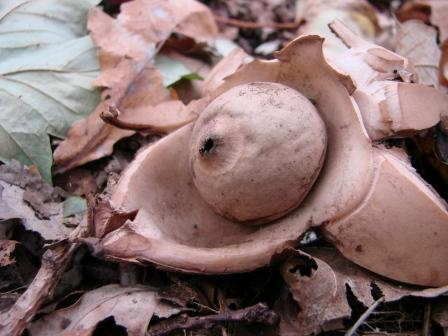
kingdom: Fungi
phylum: Basidiomycota
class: Agaricomycetes
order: Geastrales
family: Geastraceae
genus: Geastrum
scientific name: Geastrum michelianum
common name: kødet stjernebold
